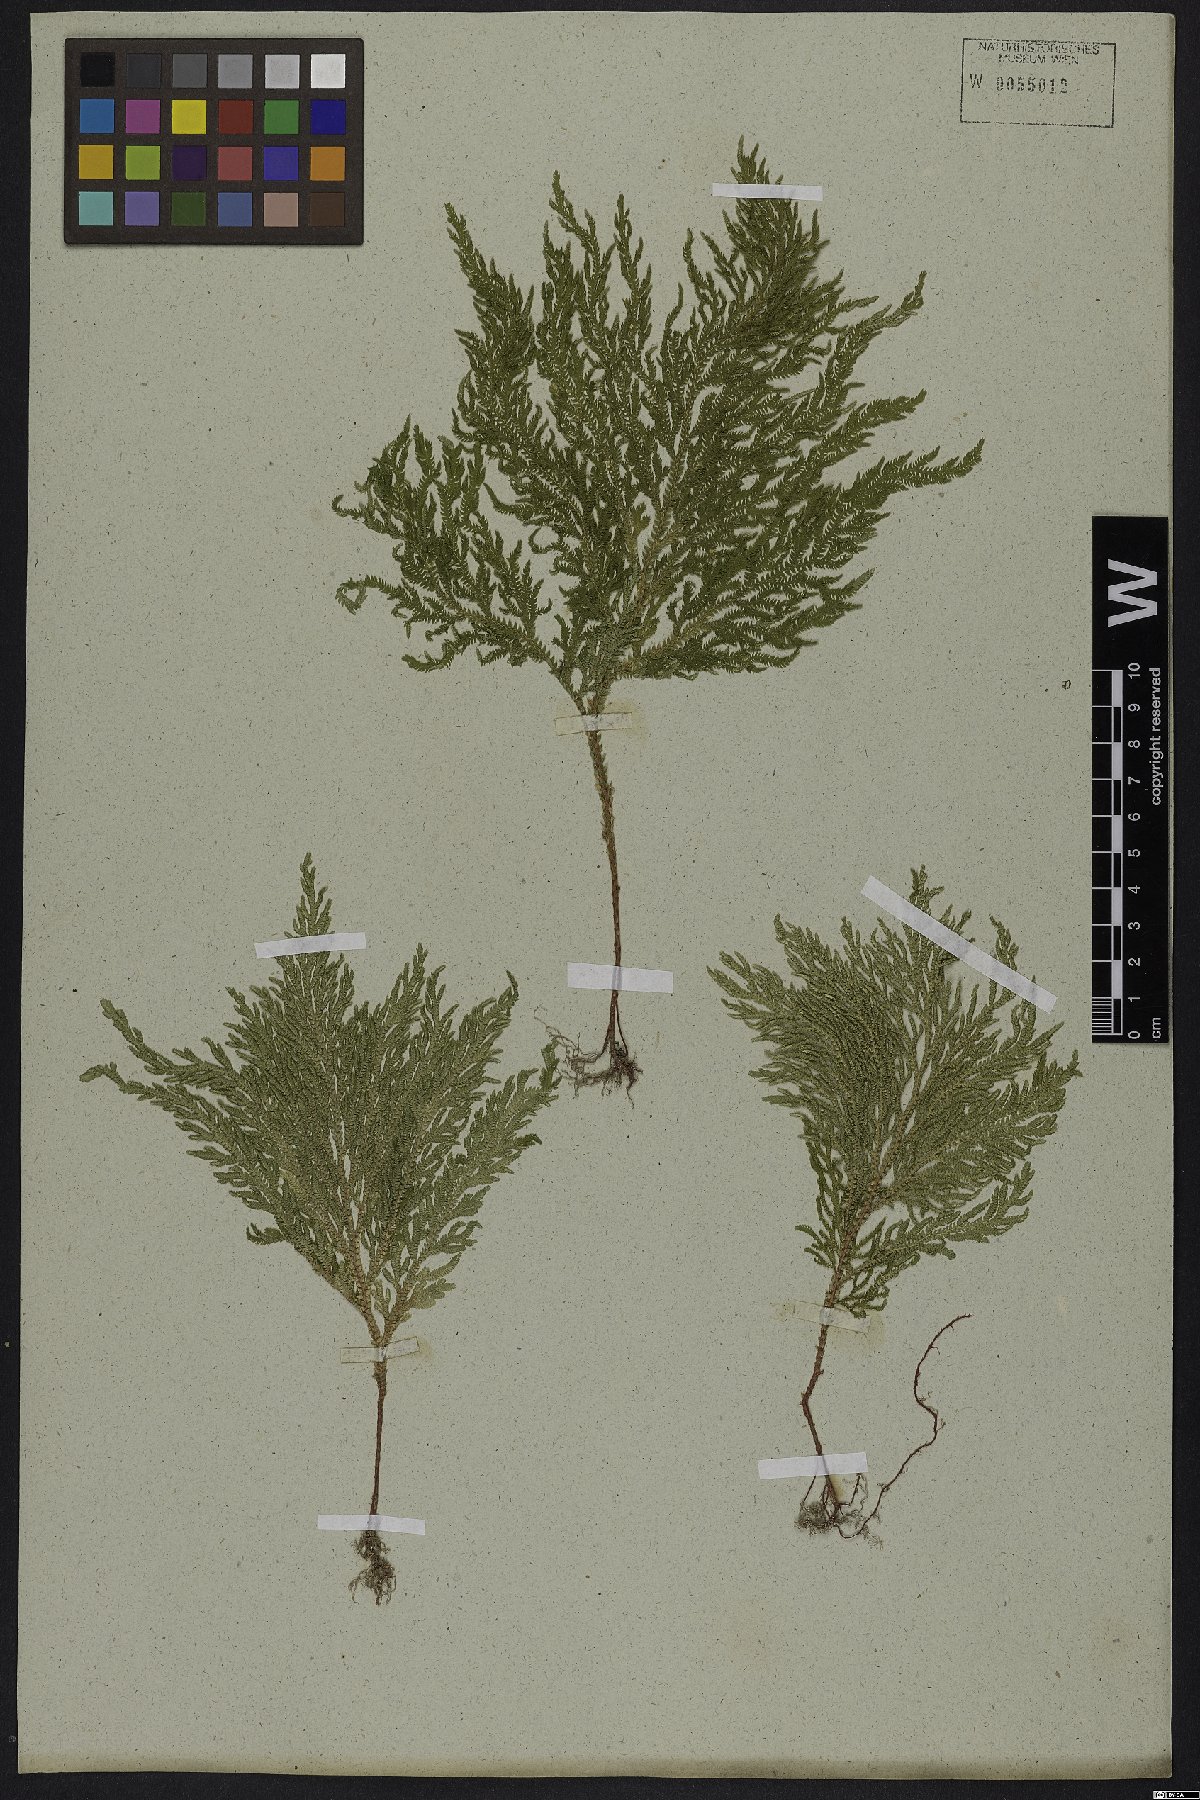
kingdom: Plantae
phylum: Tracheophyta
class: Lycopodiopsida
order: Selaginellales
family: Selaginellaceae
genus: Selaginella
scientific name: Selaginella erythropus
